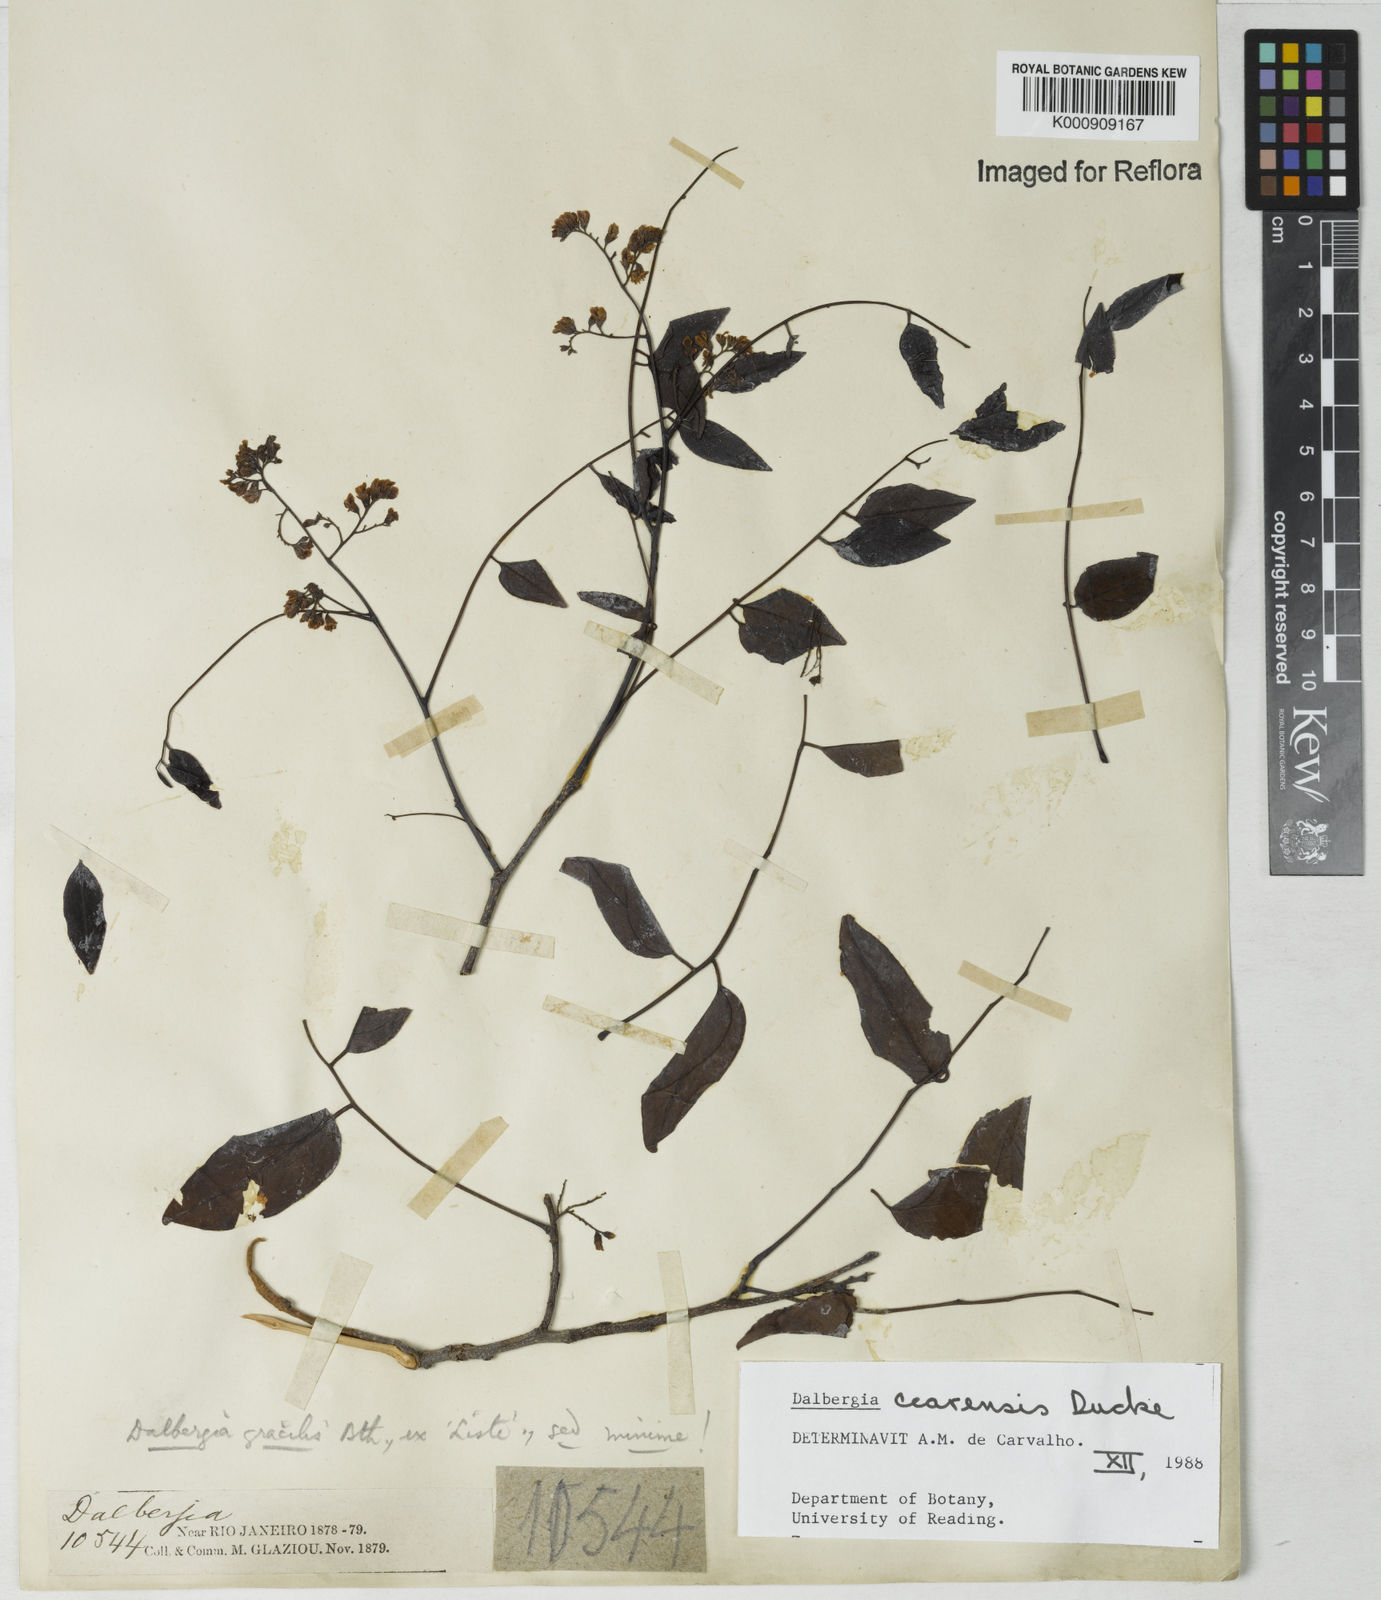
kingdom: Plantae
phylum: Tracheophyta
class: Magnoliopsida
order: Fabales
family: Fabaceae
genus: Dalbergia
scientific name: Dalbergia cearensis
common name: Brazilian-king-wood
